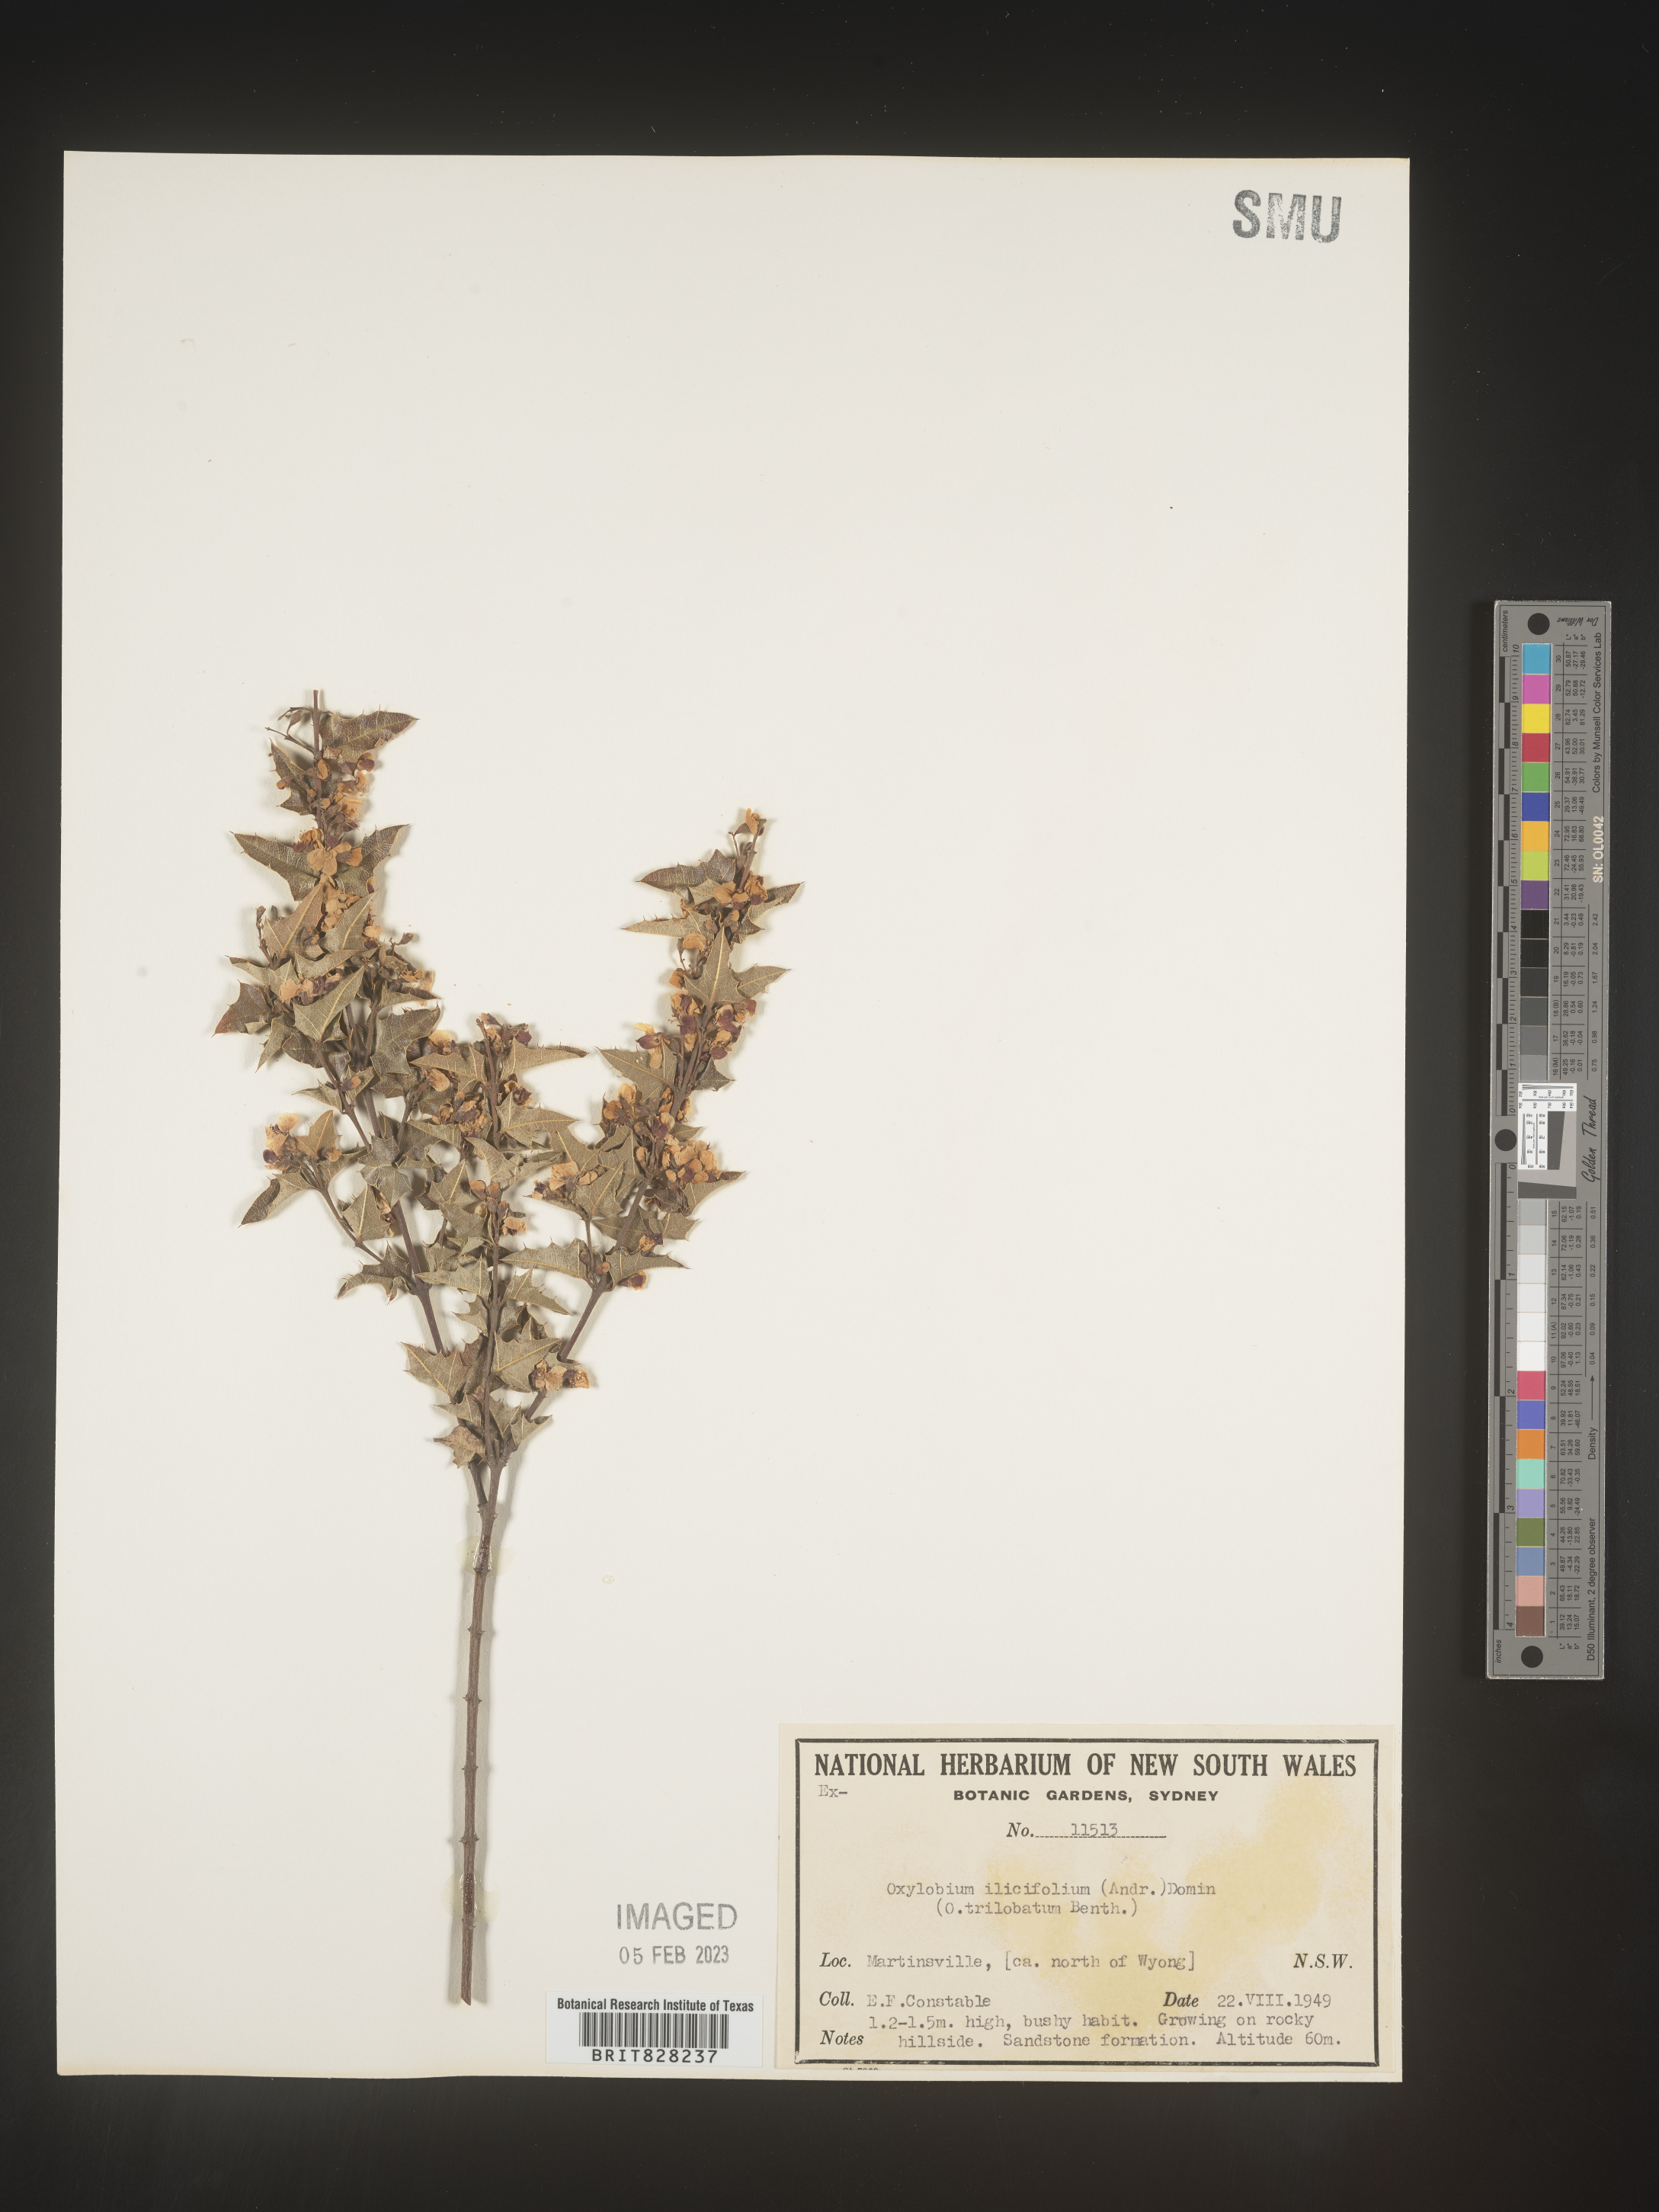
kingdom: Plantae
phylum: Tracheophyta
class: Magnoliopsida
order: Fabales
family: Fabaceae
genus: Oxylobium
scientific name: Oxylobium
